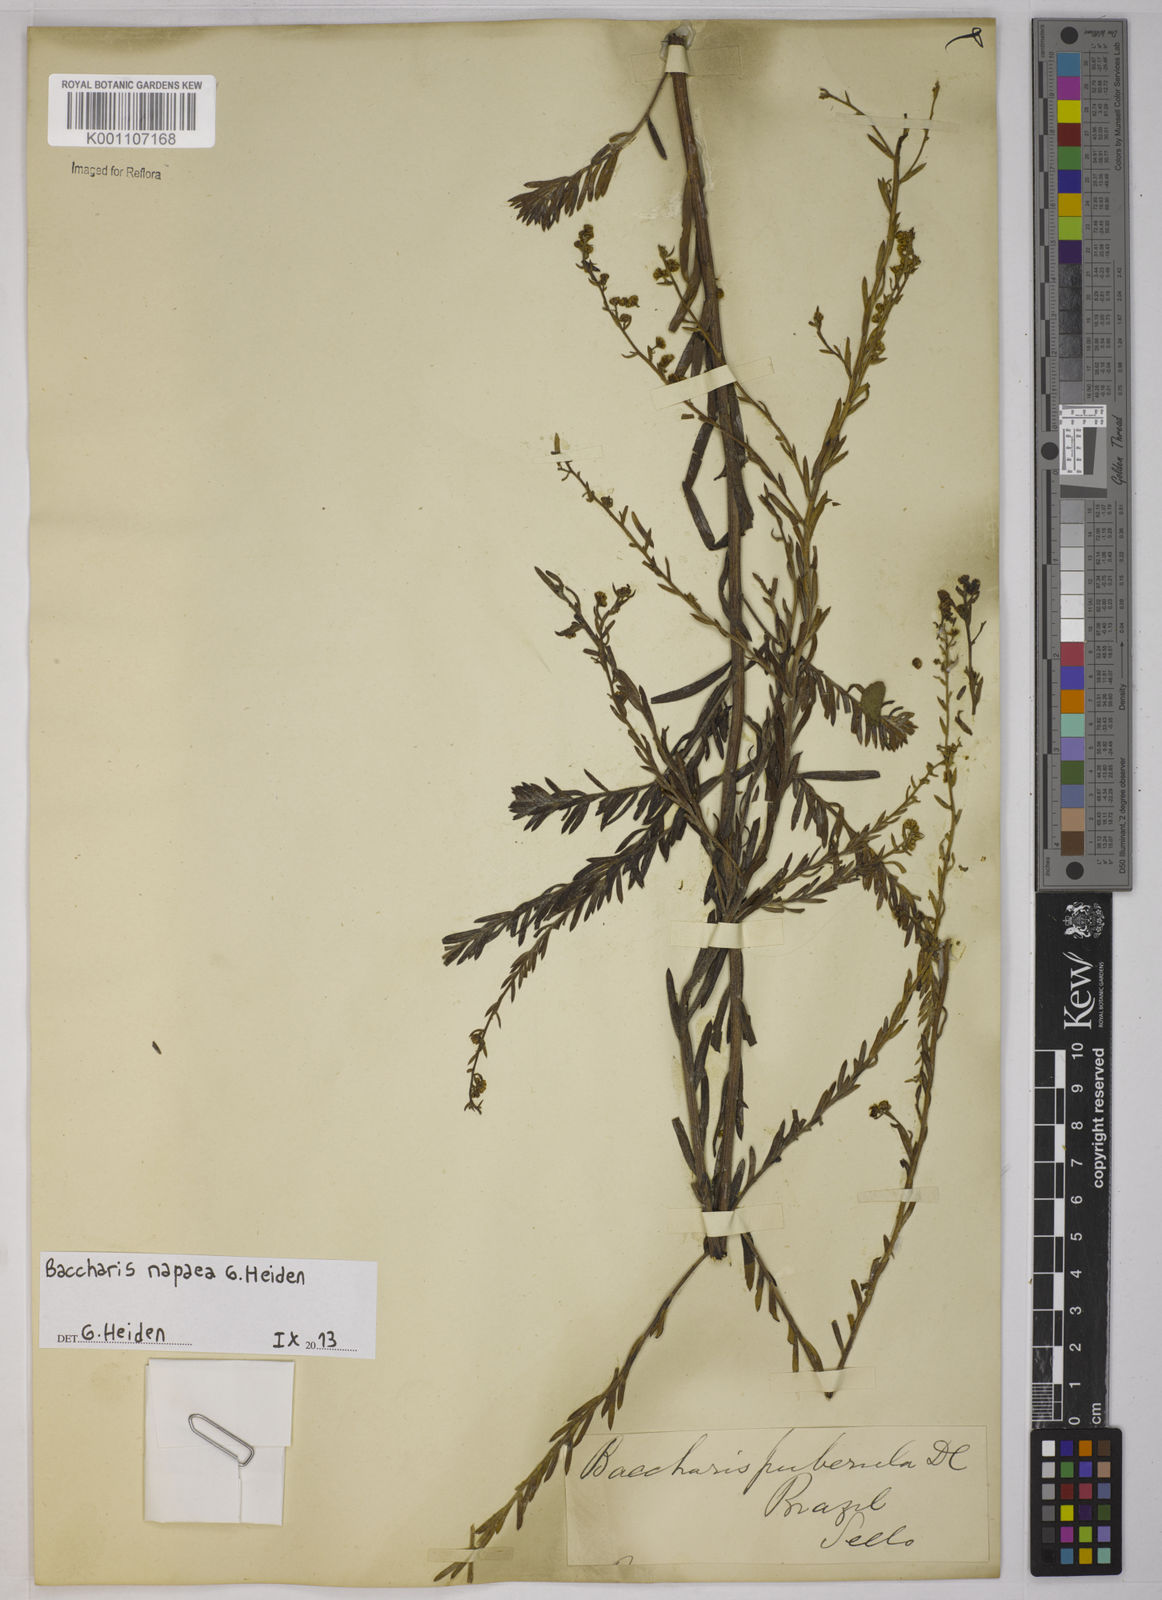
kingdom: Plantae
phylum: Tracheophyta
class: Magnoliopsida
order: Asterales
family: Asteraceae
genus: Baccharis
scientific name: Baccharis napaea
